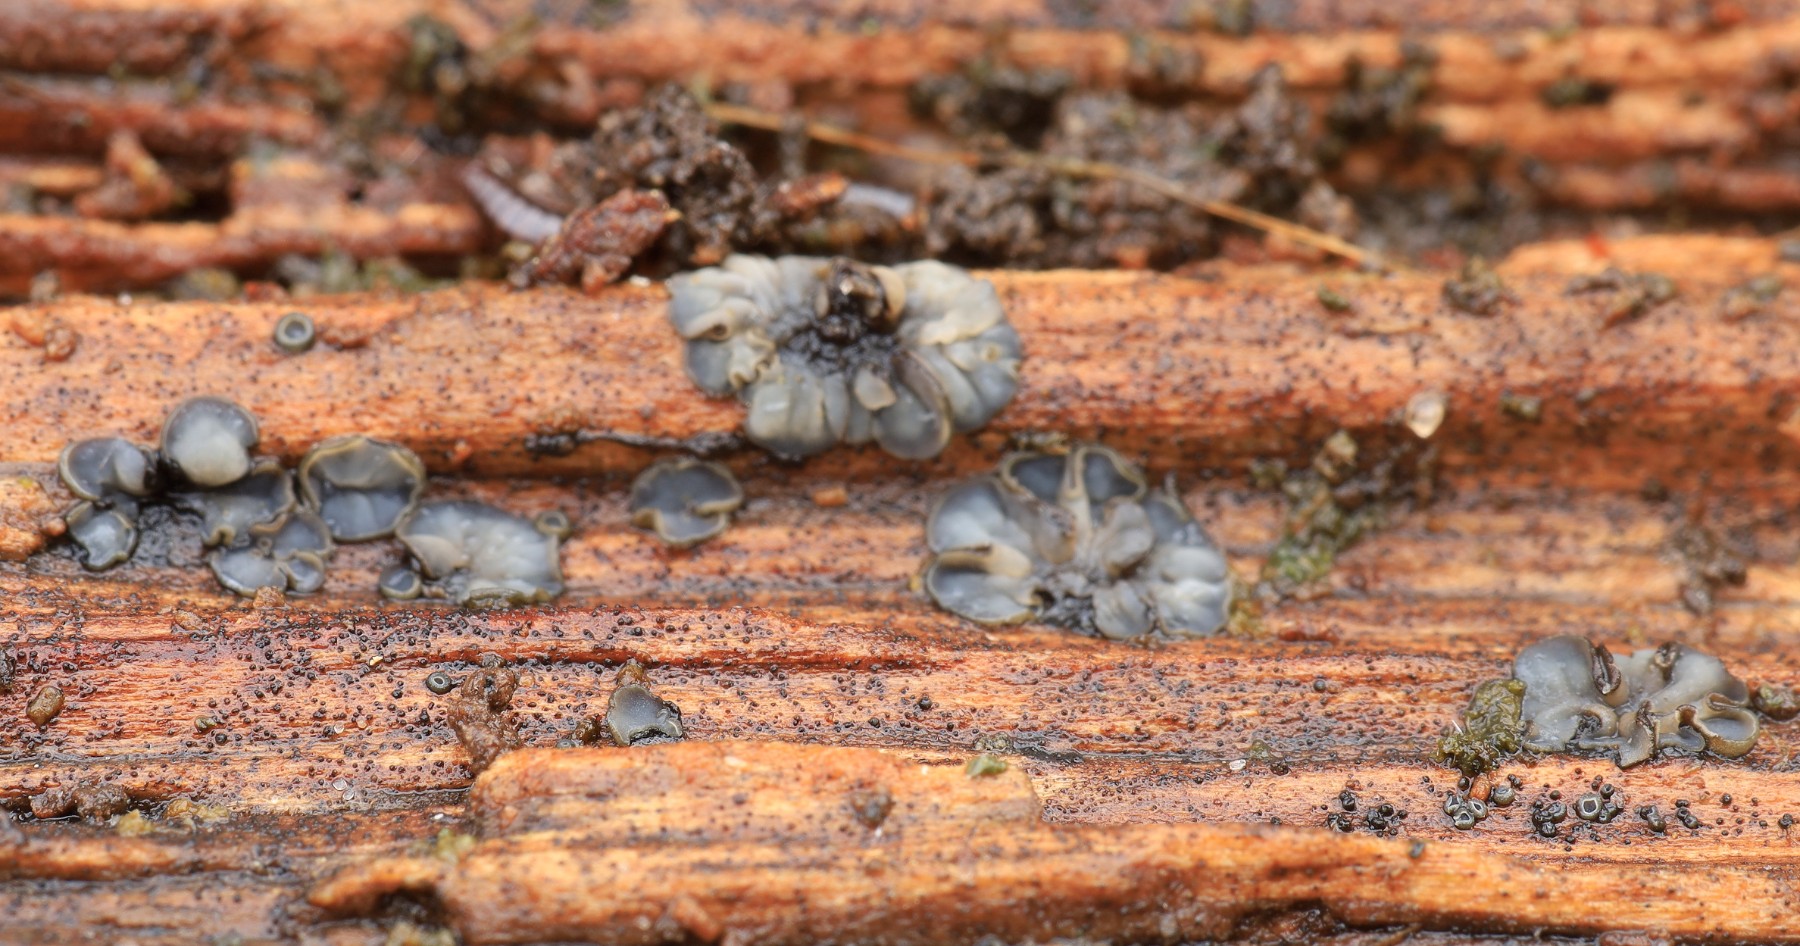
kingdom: Fungi
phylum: Ascomycota
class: Leotiomycetes
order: Helotiales
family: Mollisiaceae
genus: Mollisia
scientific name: Mollisia
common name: gråskive
